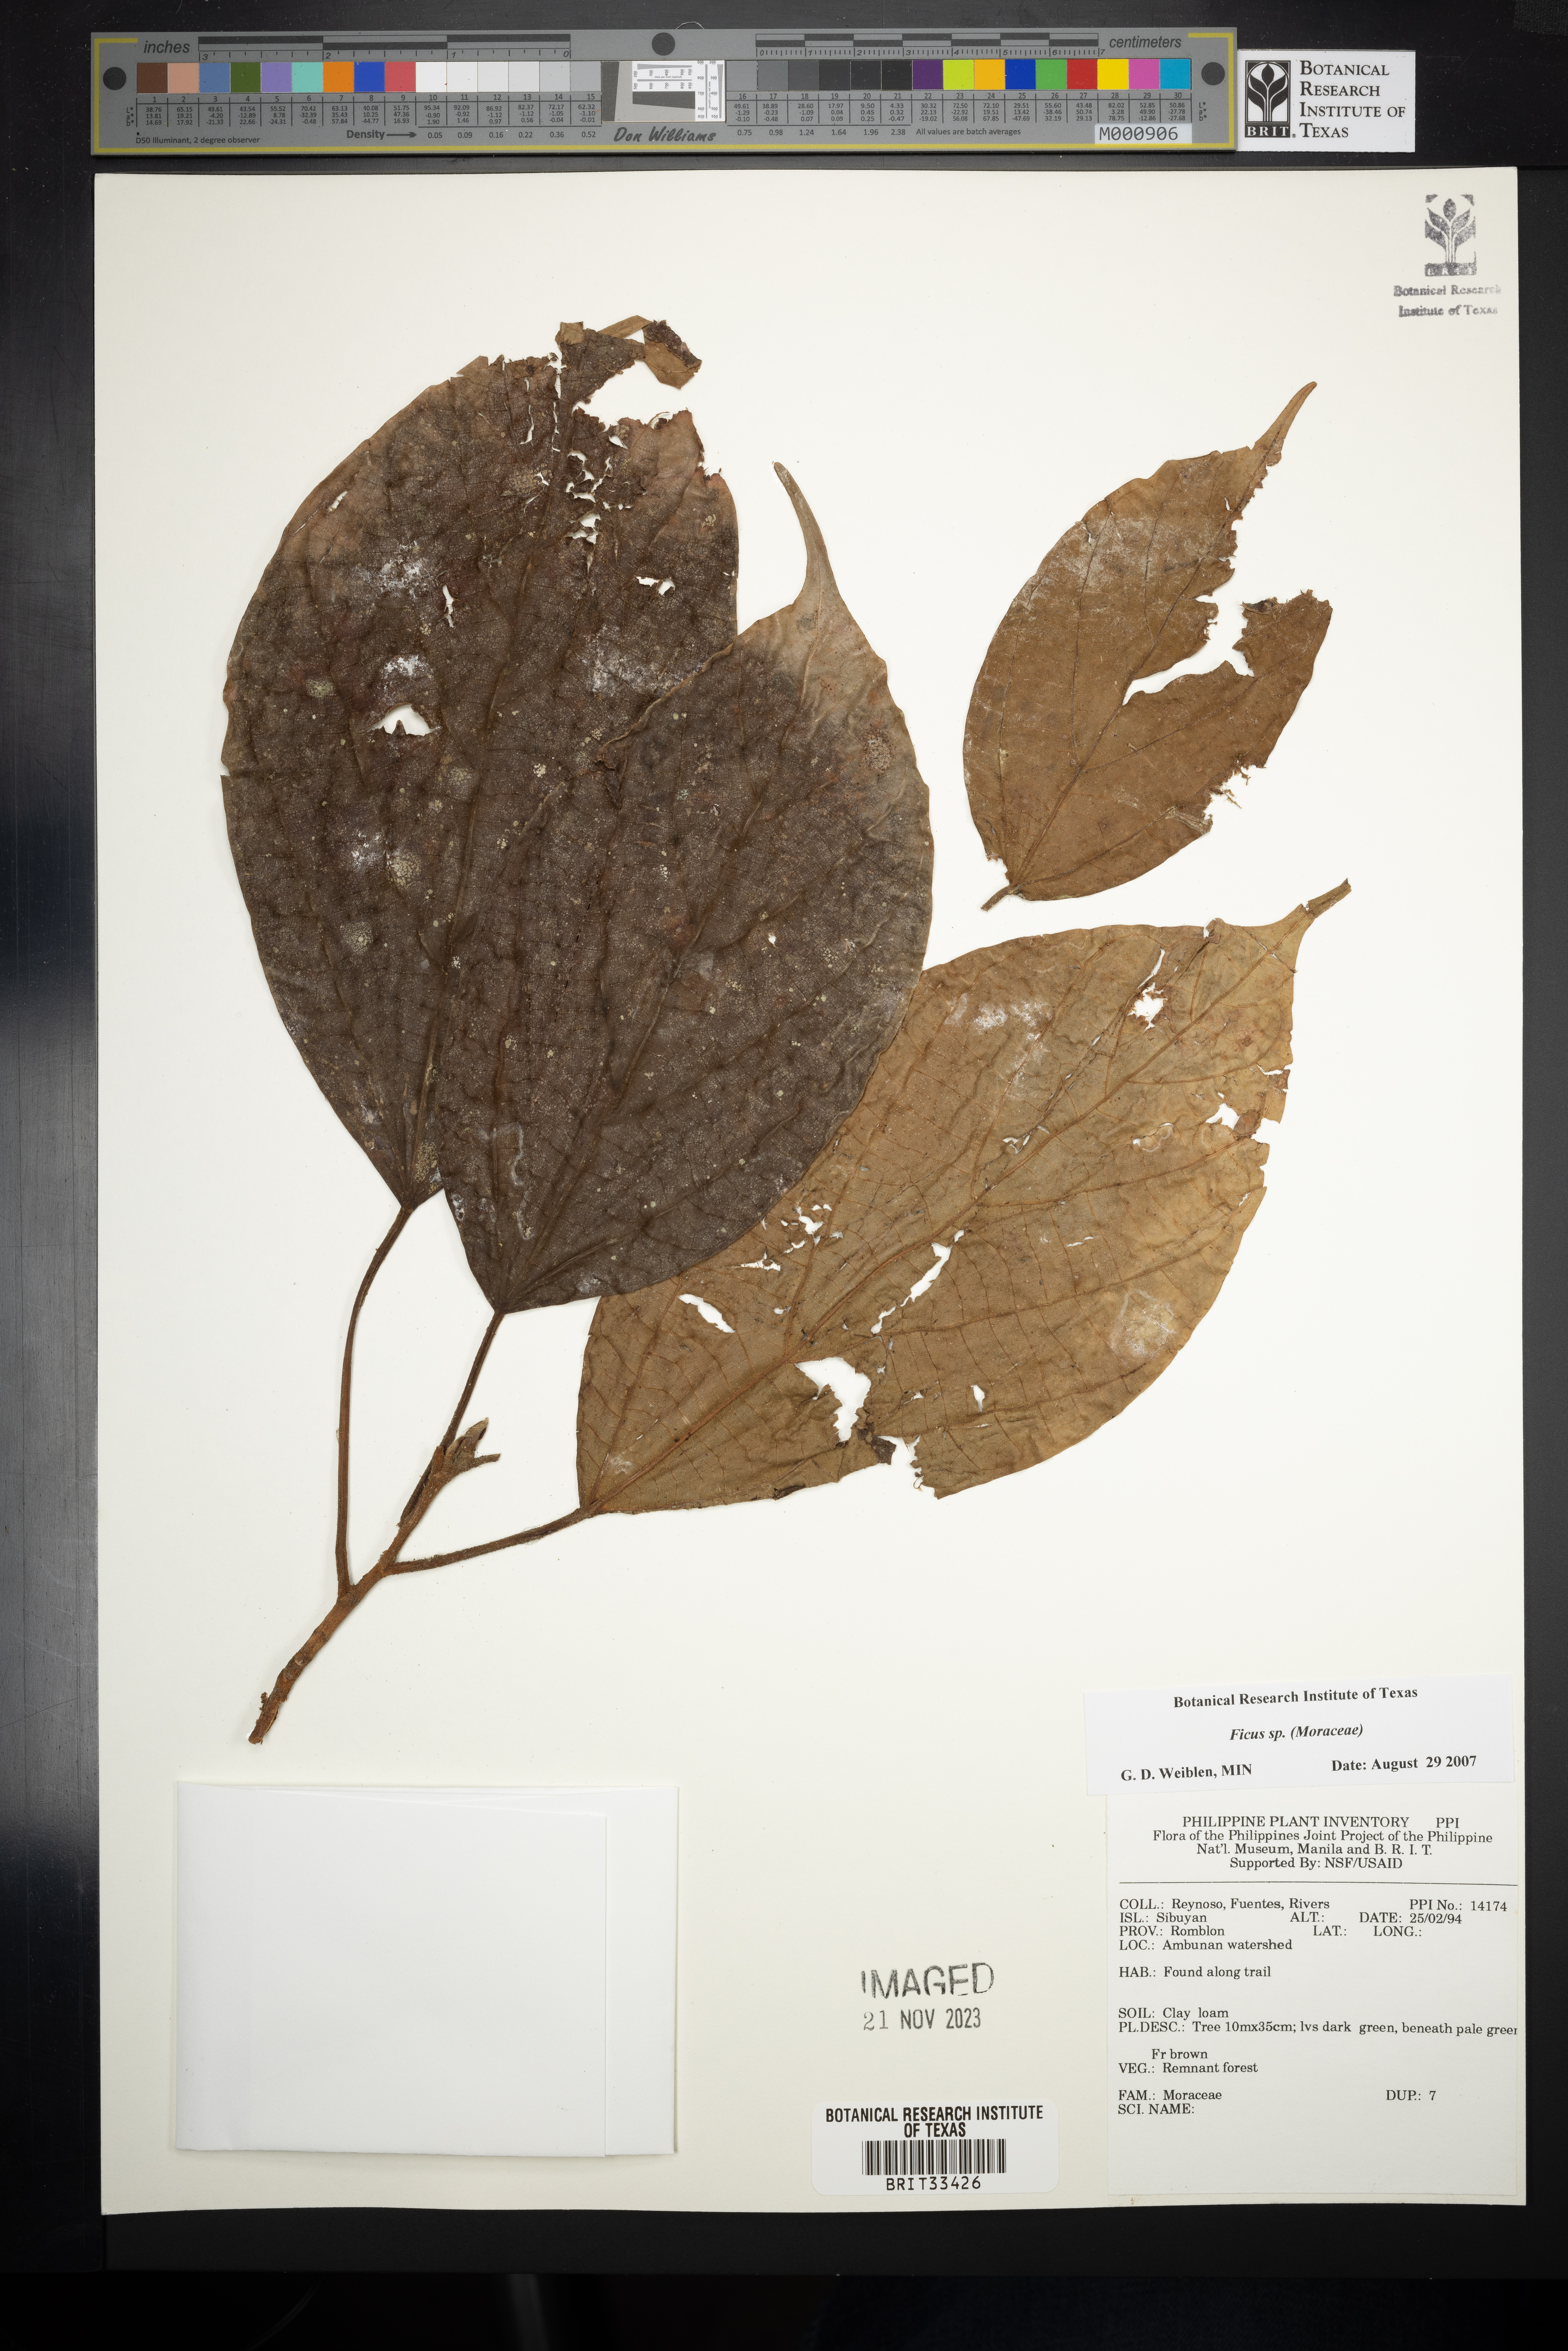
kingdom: Plantae
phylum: Tracheophyta
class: Magnoliopsida
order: Rosales
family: Moraceae
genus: Ficus
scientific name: Ficus
